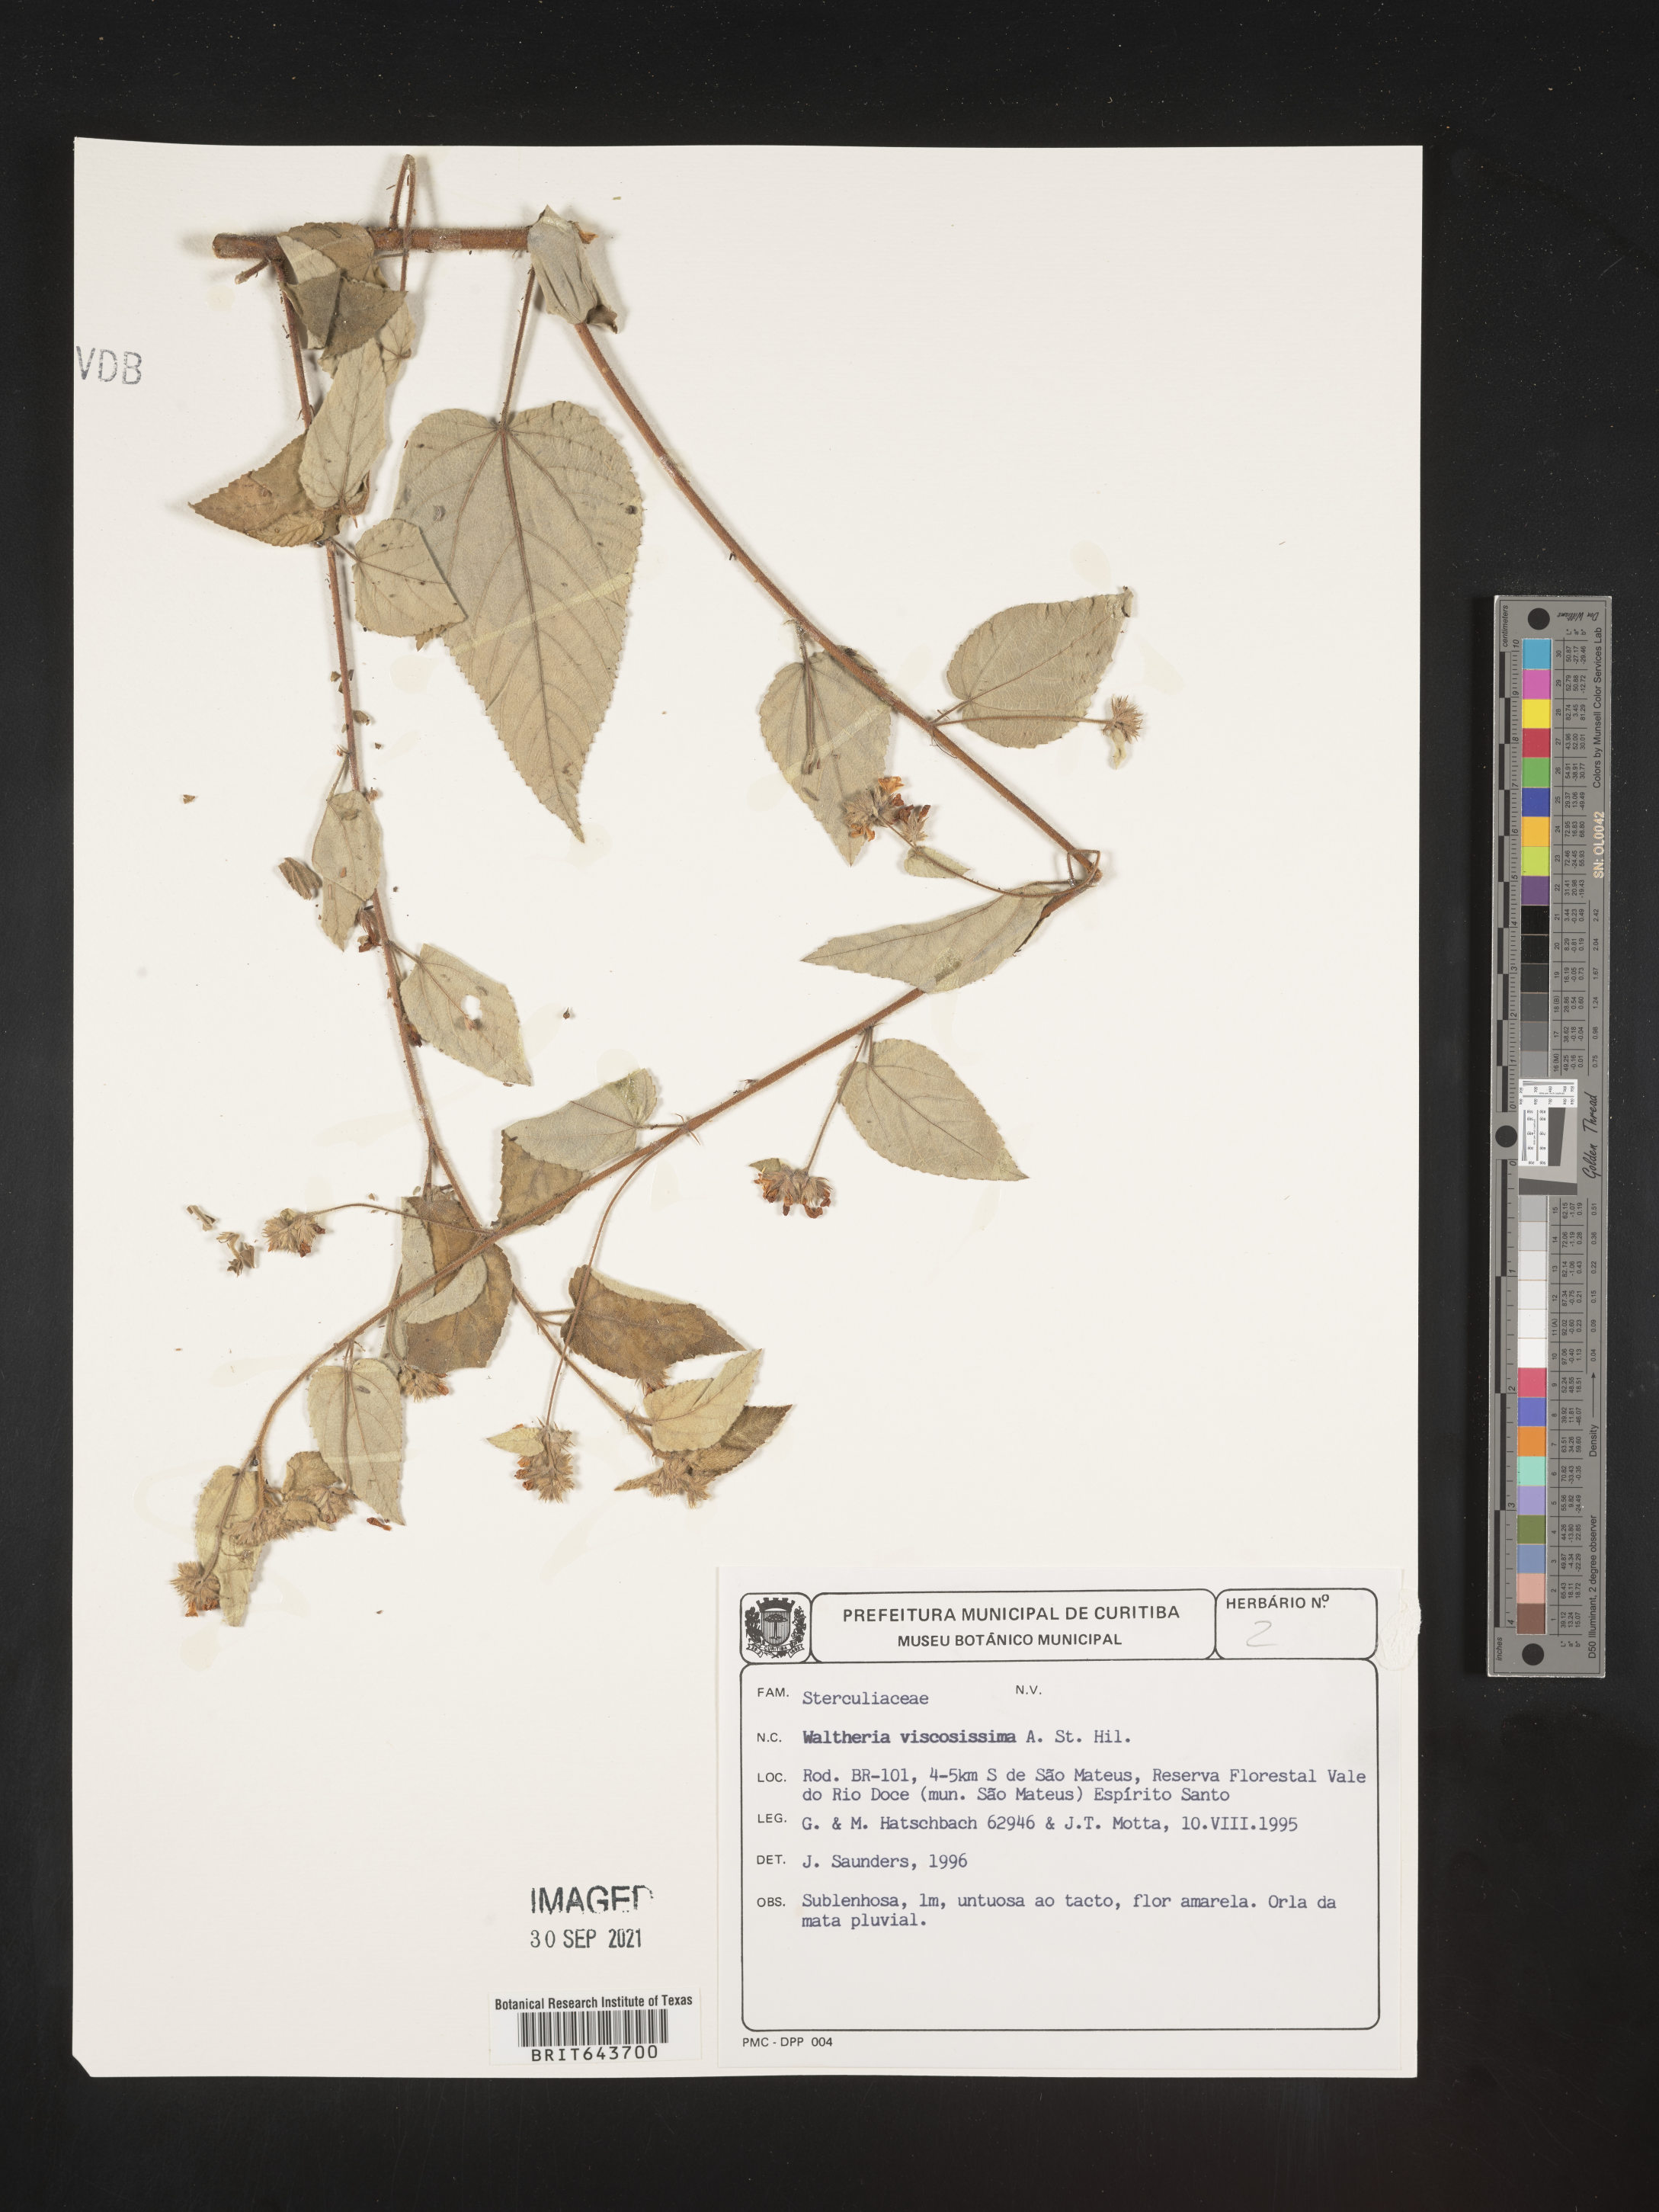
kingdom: Plantae
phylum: Tracheophyta
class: Magnoliopsida
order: Malvales
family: Malvaceae
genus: Waltheria
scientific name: Waltheria
